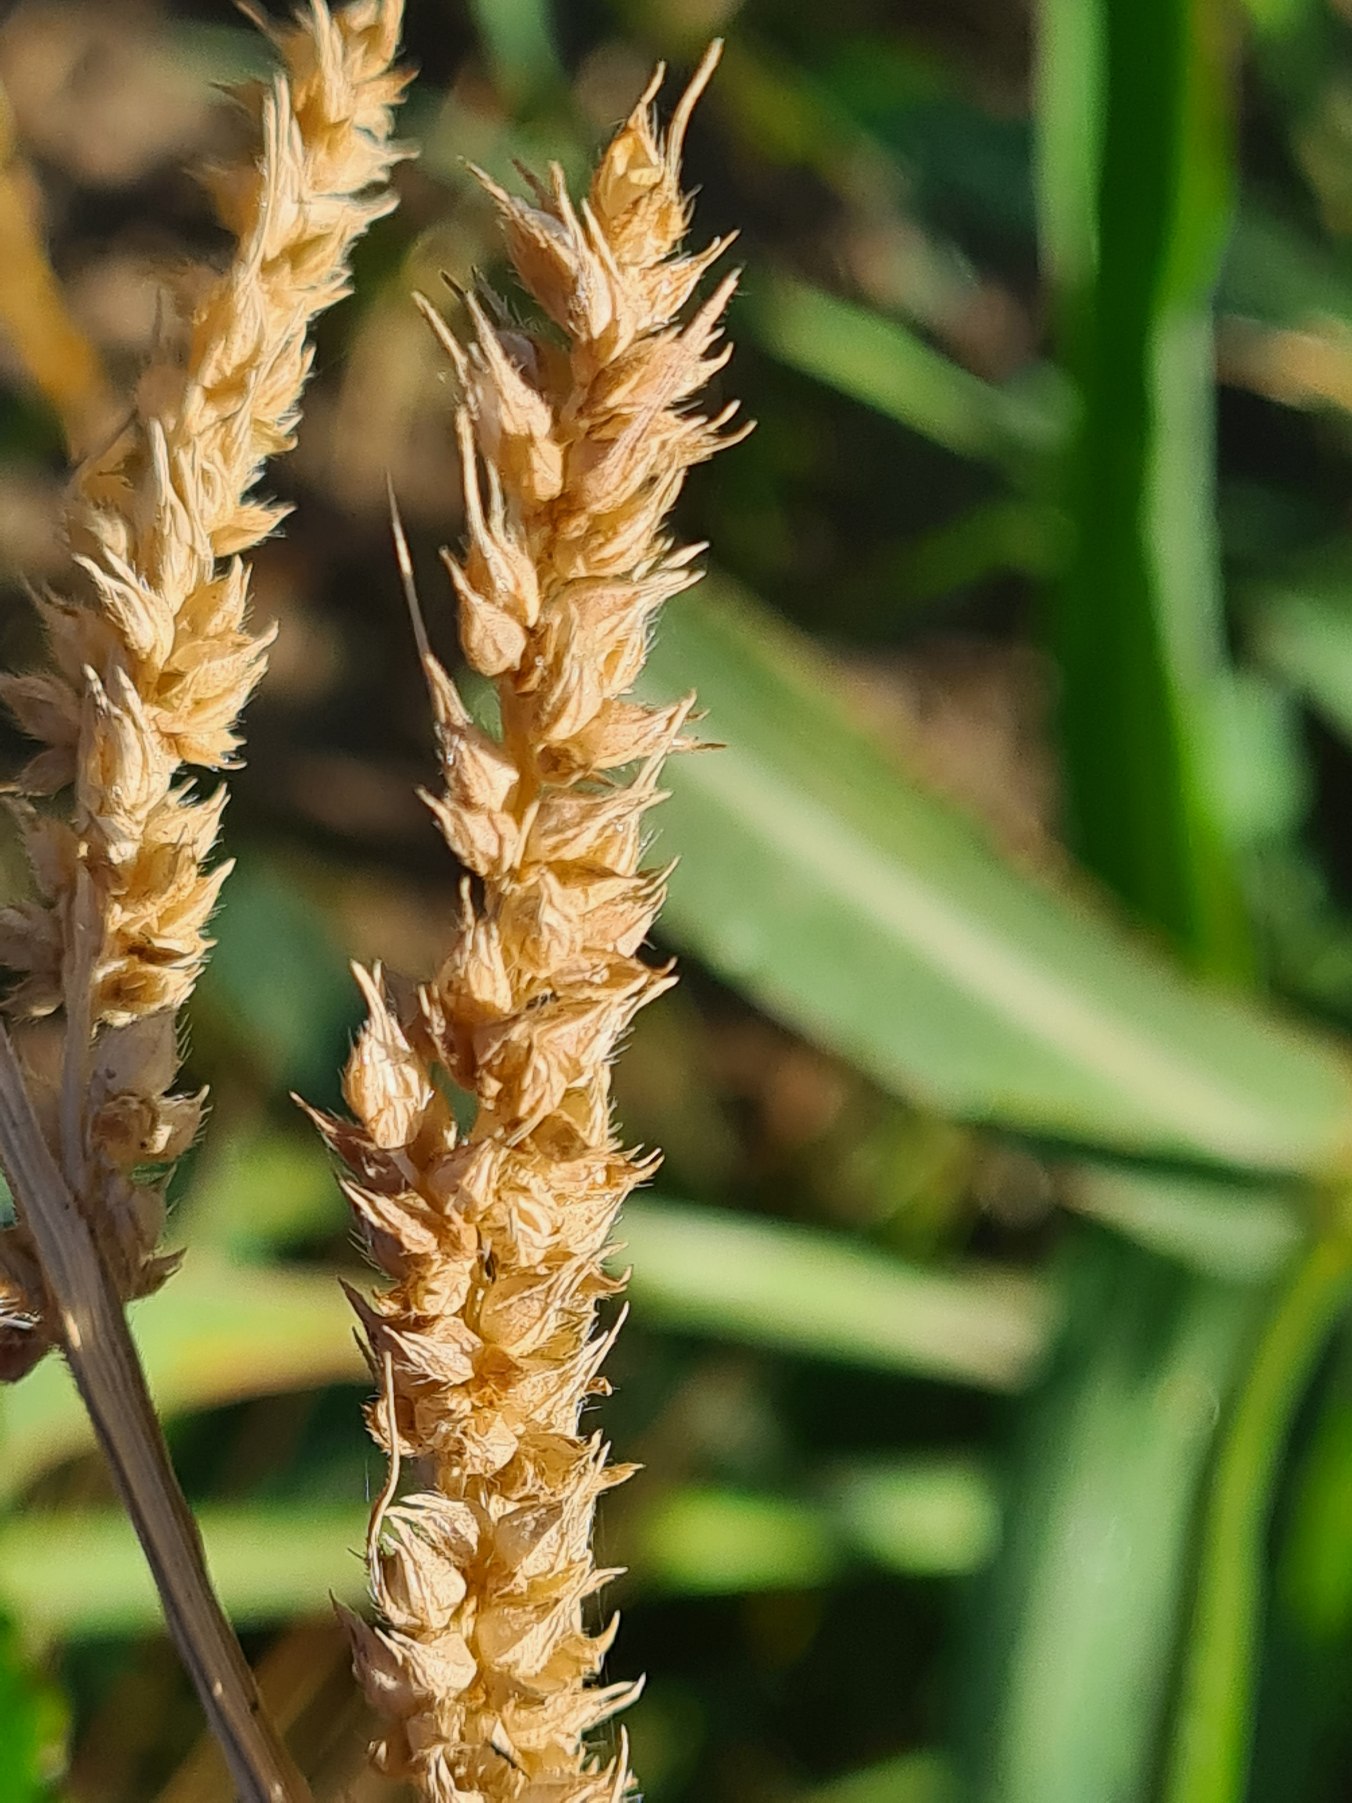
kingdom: Plantae
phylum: Tracheophyta
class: Liliopsida
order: Poales
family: Poaceae
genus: Echinochloa
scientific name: Echinochloa crus-galli
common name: Almindelig hanespore
